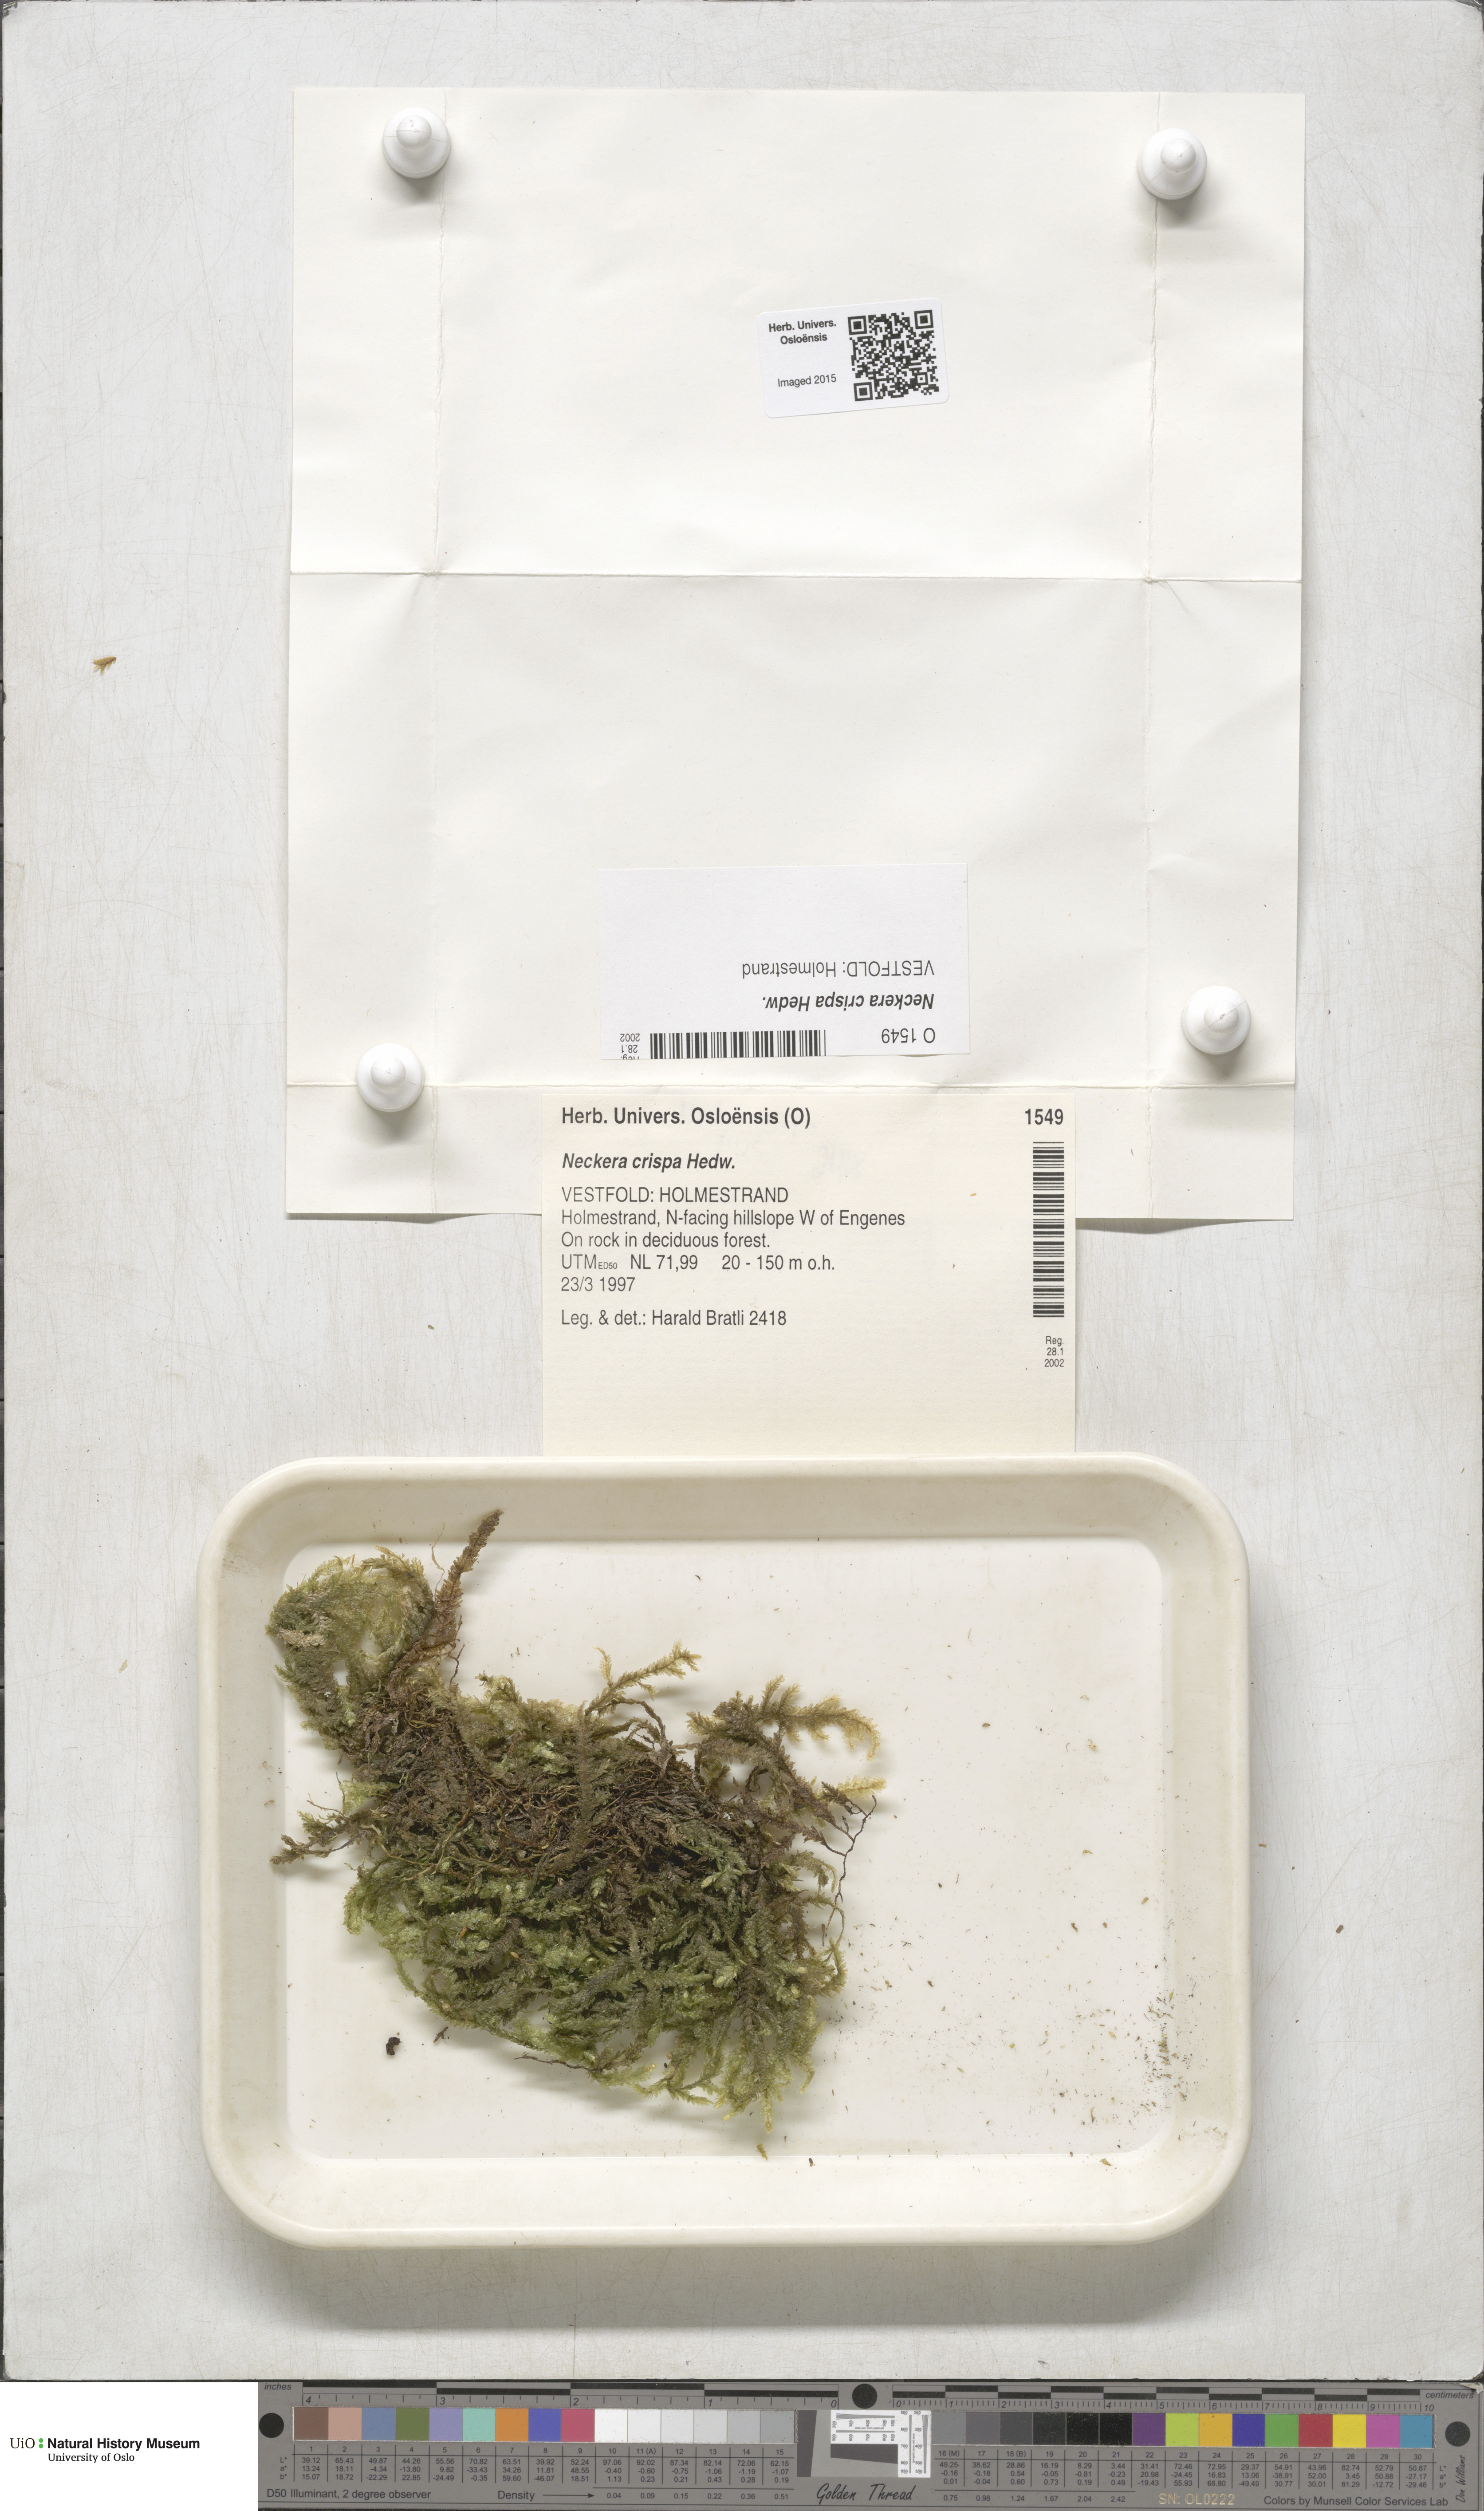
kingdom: Plantae
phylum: Bryophyta
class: Bryopsida
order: Hypnales
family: Neckeraceae
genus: Exsertotheca
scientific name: Exsertotheca crispa
